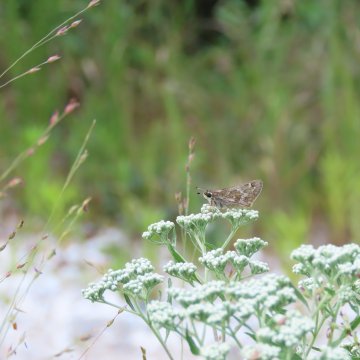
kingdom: Animalia
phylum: Arthropoda
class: Insecta
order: Lepidoptera
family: Hesperiidae
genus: Atalopedes
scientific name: Atalopedes campestris
